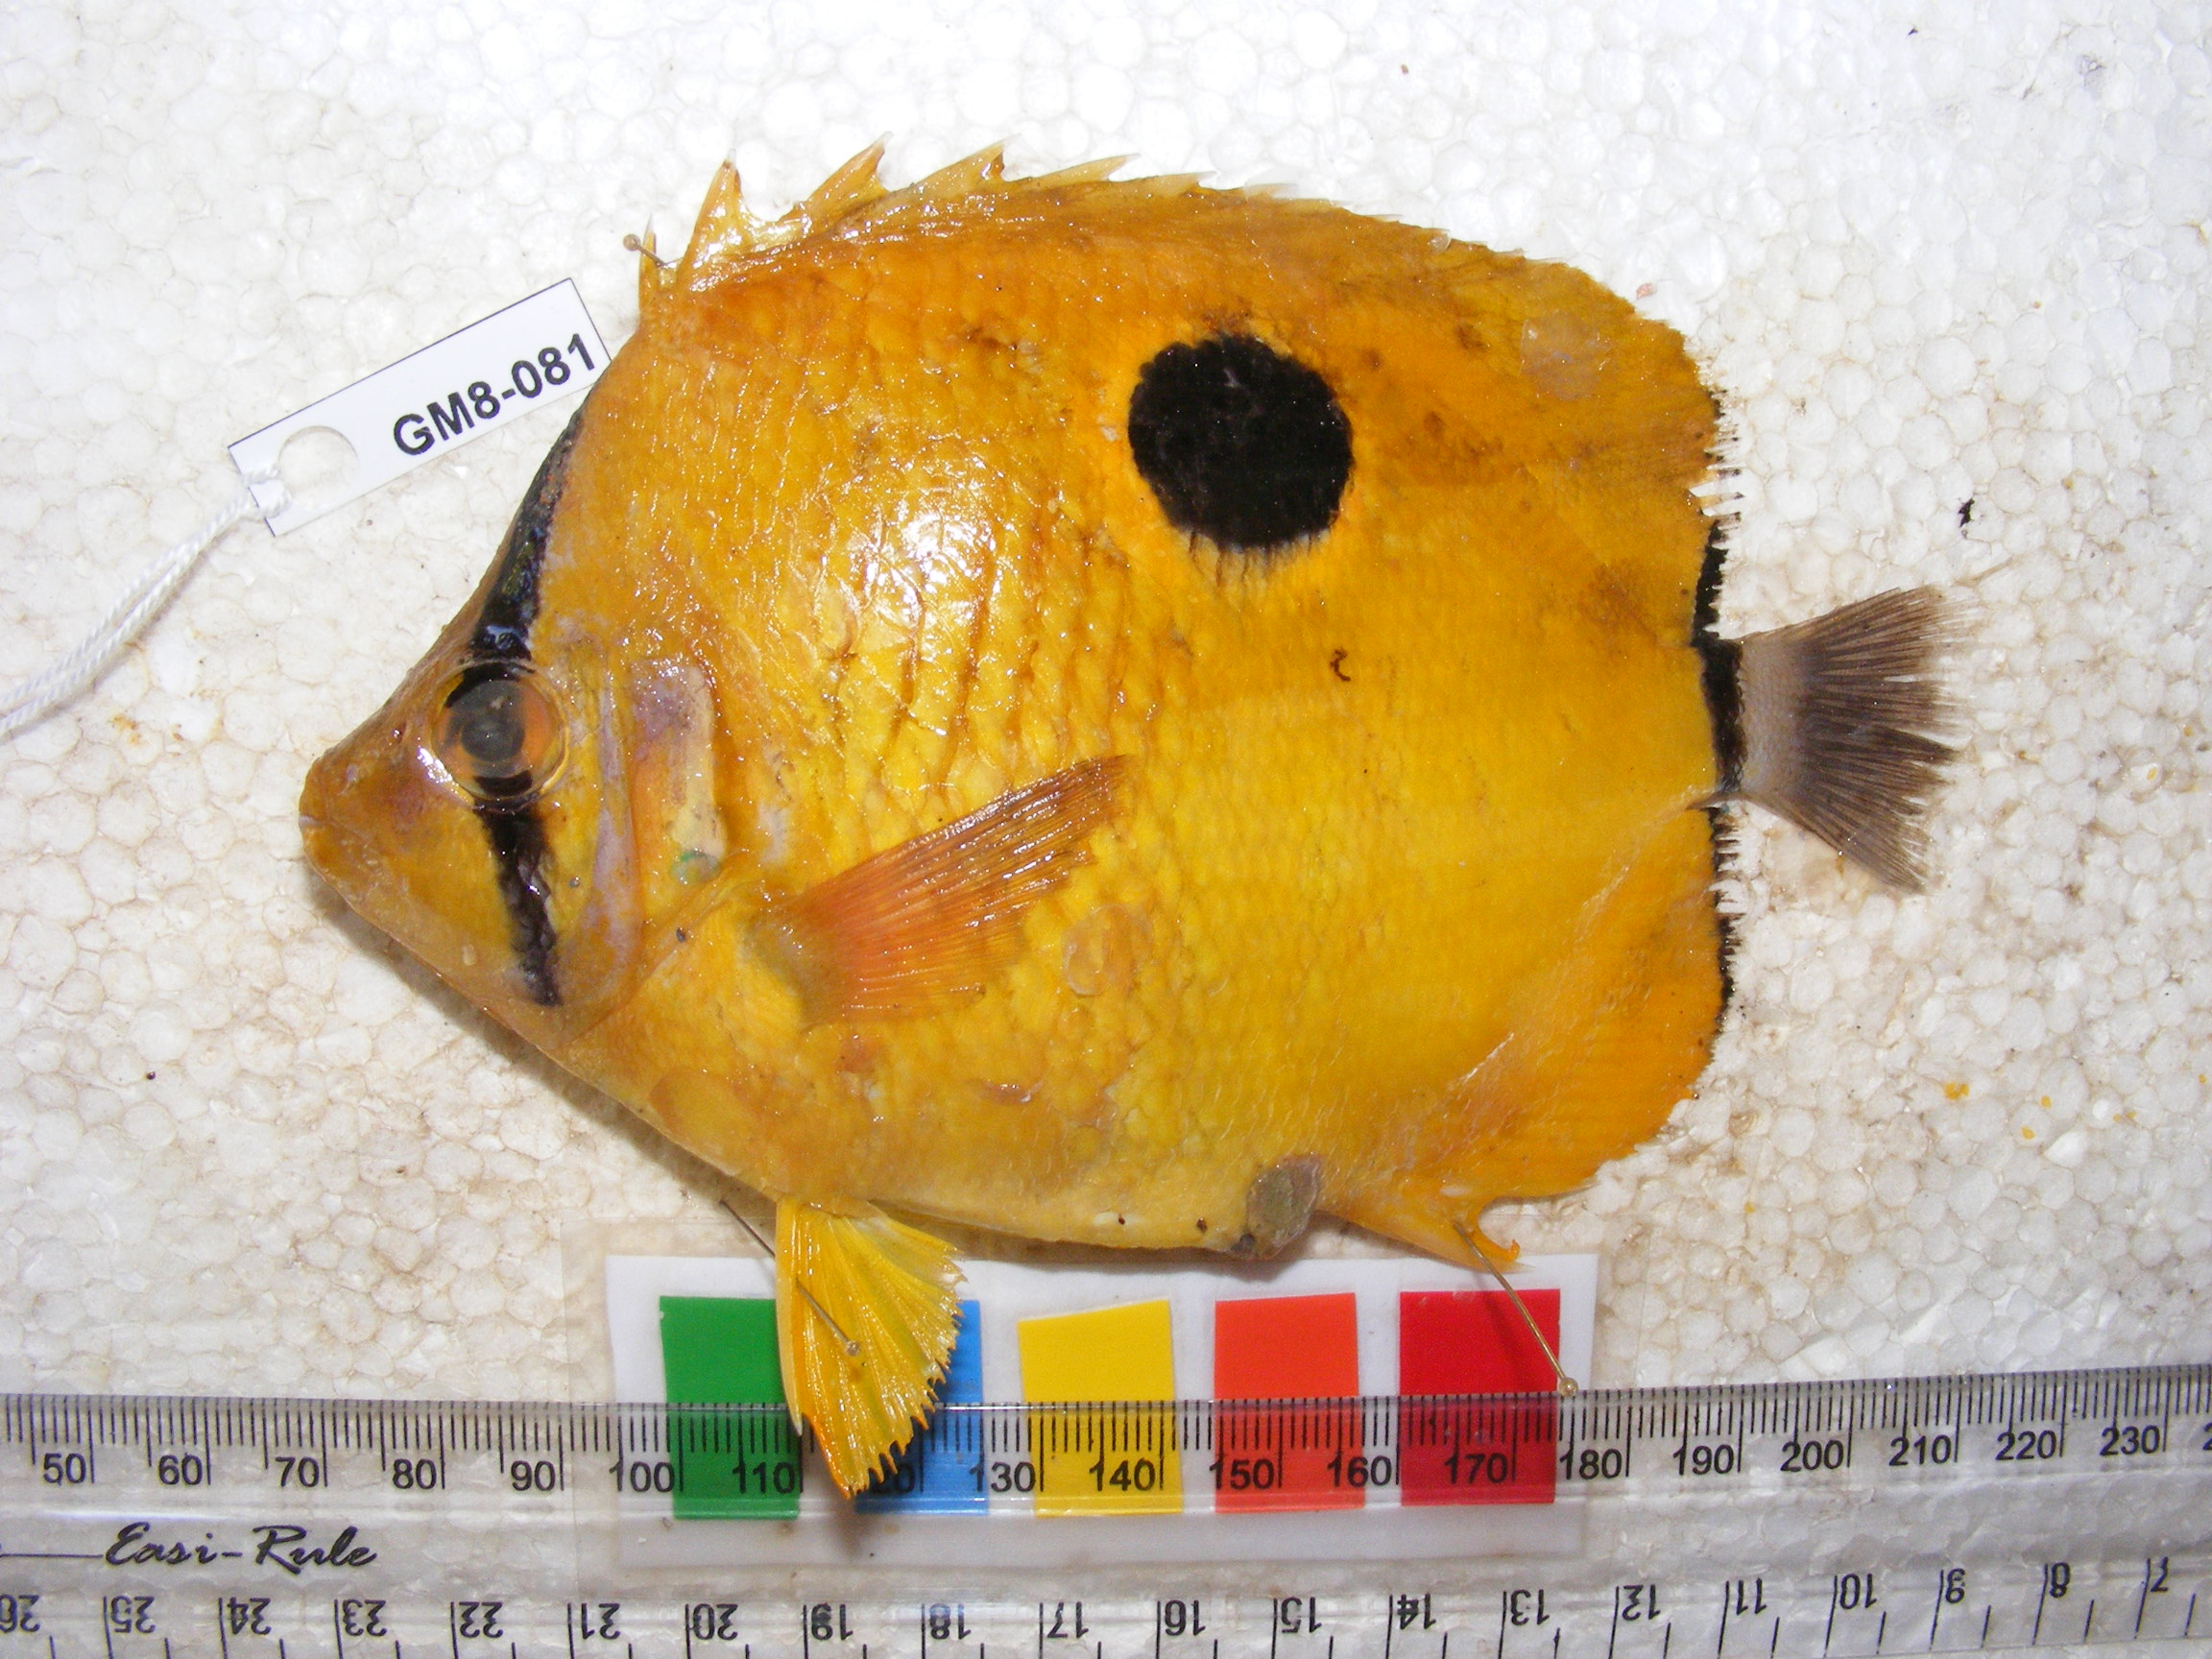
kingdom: Animalia
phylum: Chordata
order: Perciformes
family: Chaetodontidae
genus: Chaetodon
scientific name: Chaetodon unimaculatus
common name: Teardrop butterflyfish
